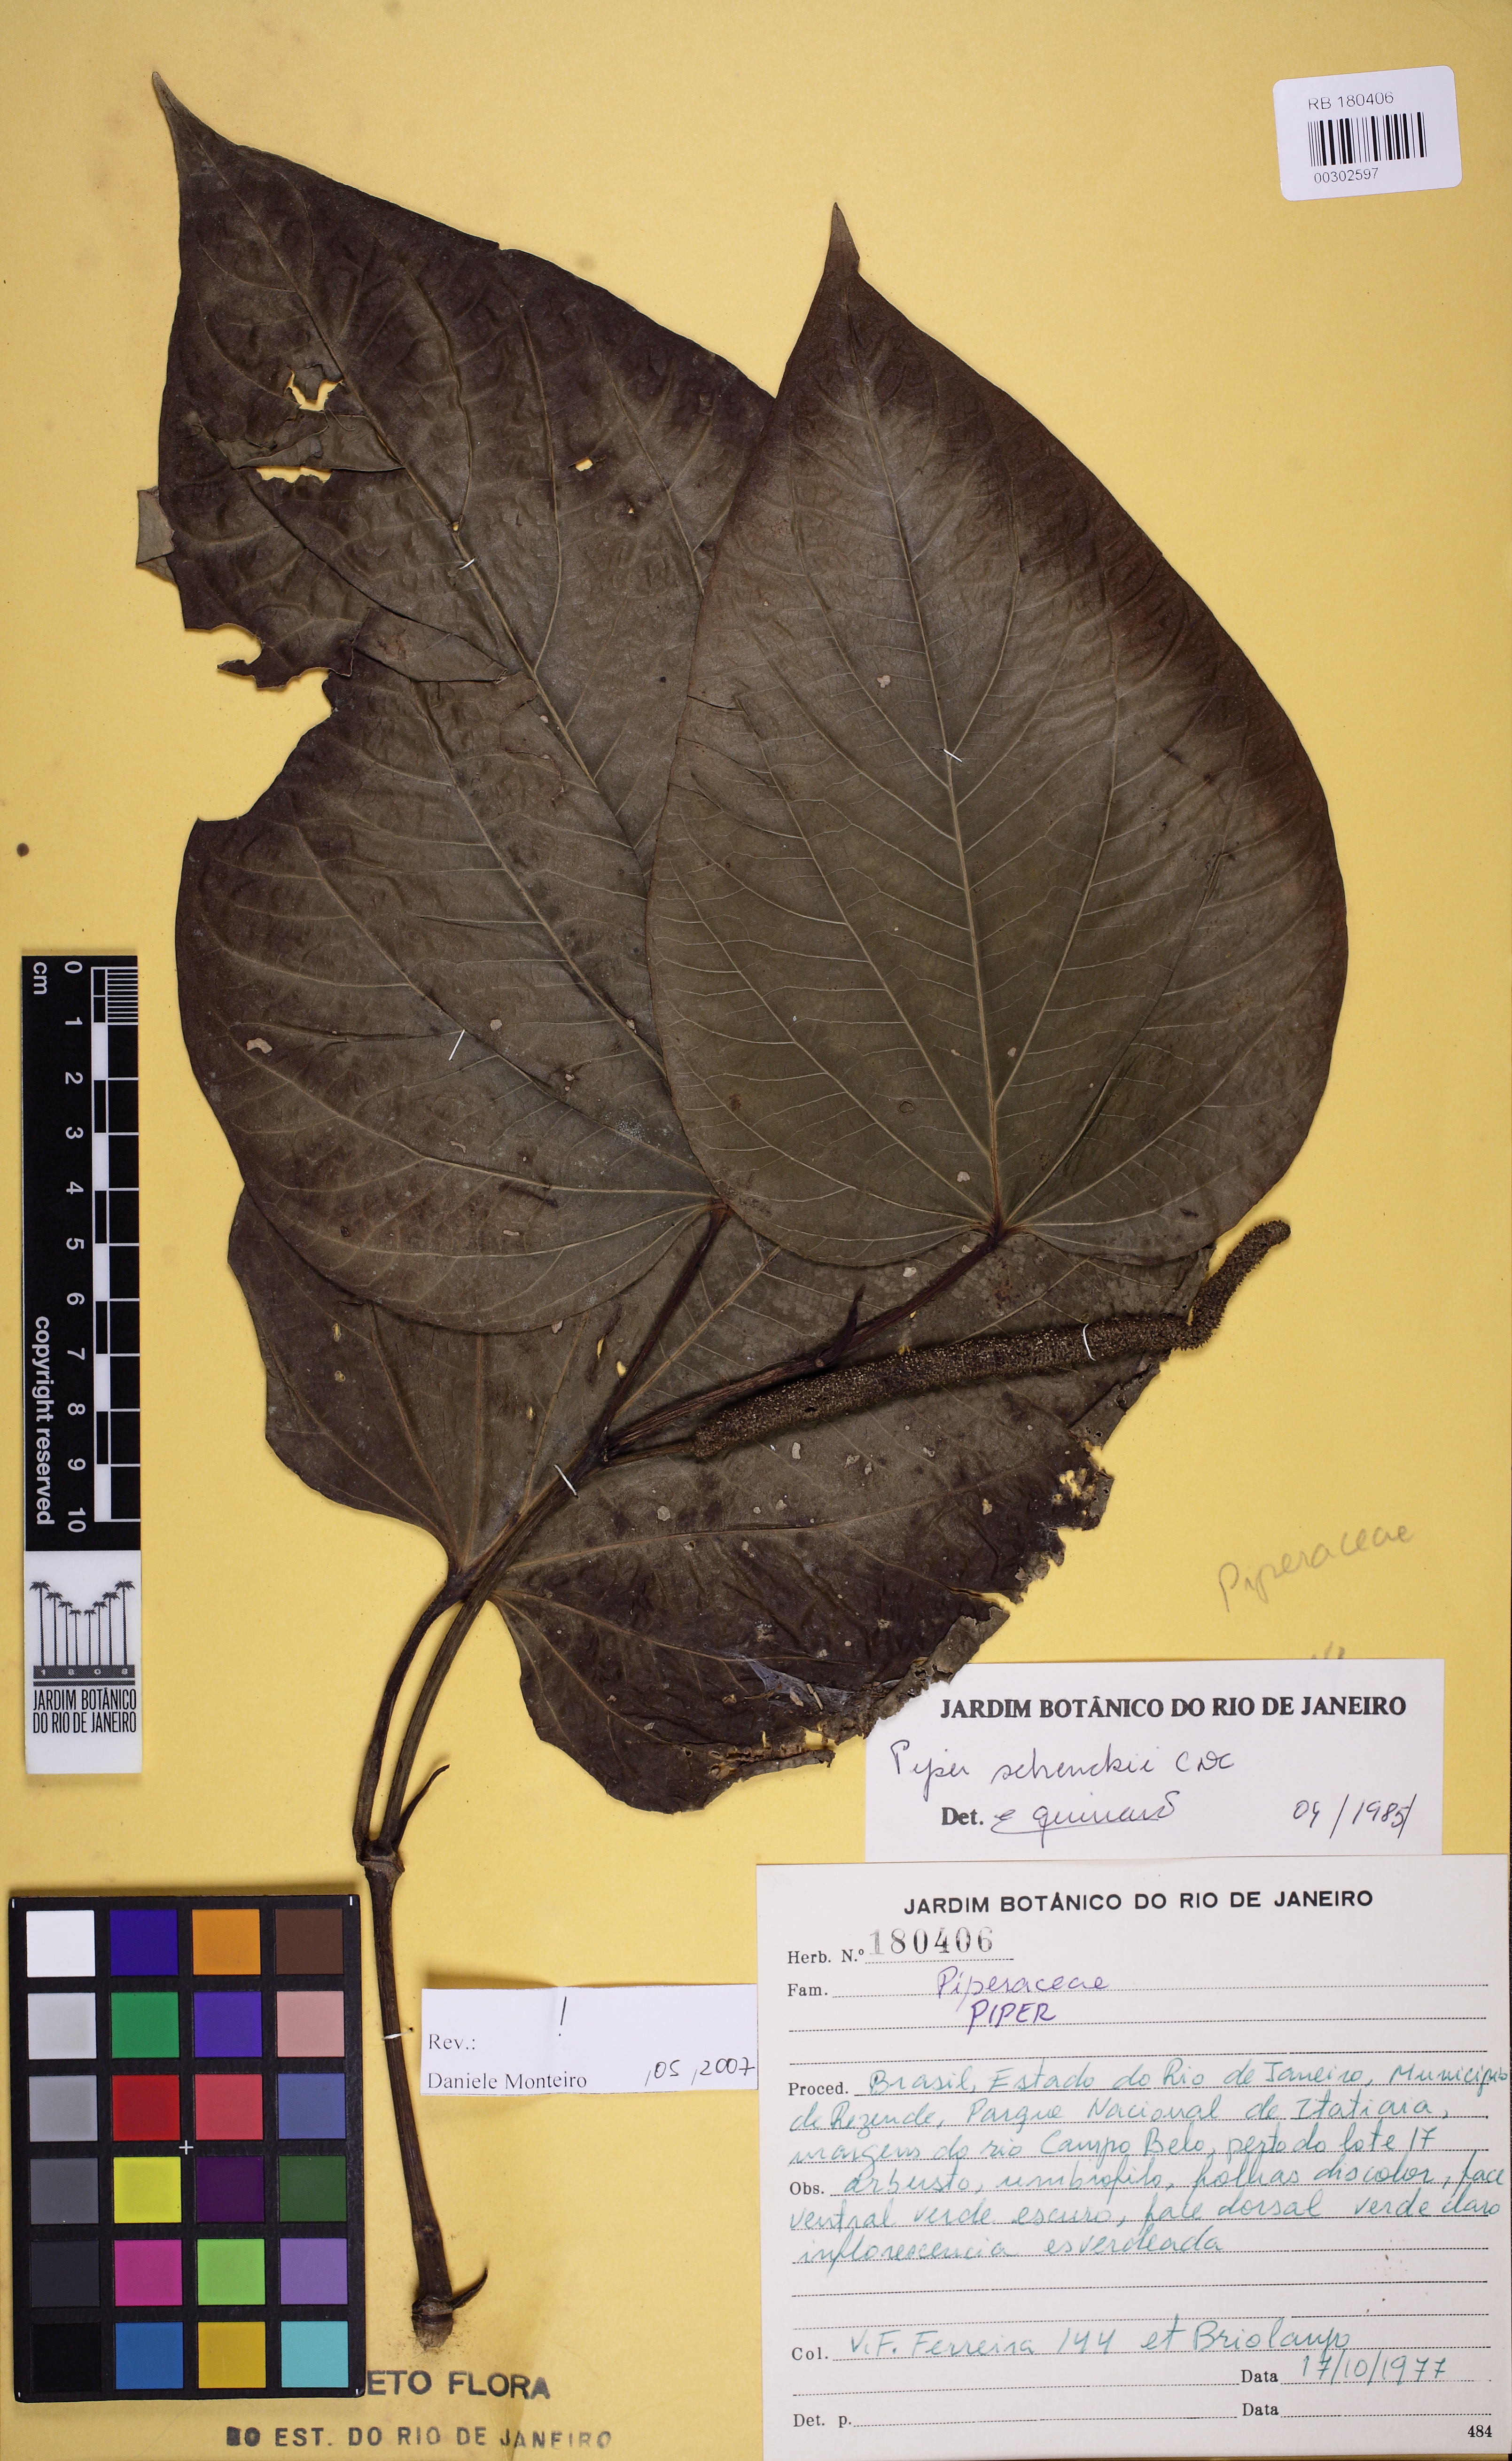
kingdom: Plantae
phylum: Tracheophyta
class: Magnoliopsida
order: Piperales
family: Piperaceae
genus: Piper
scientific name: Piper schenckii
